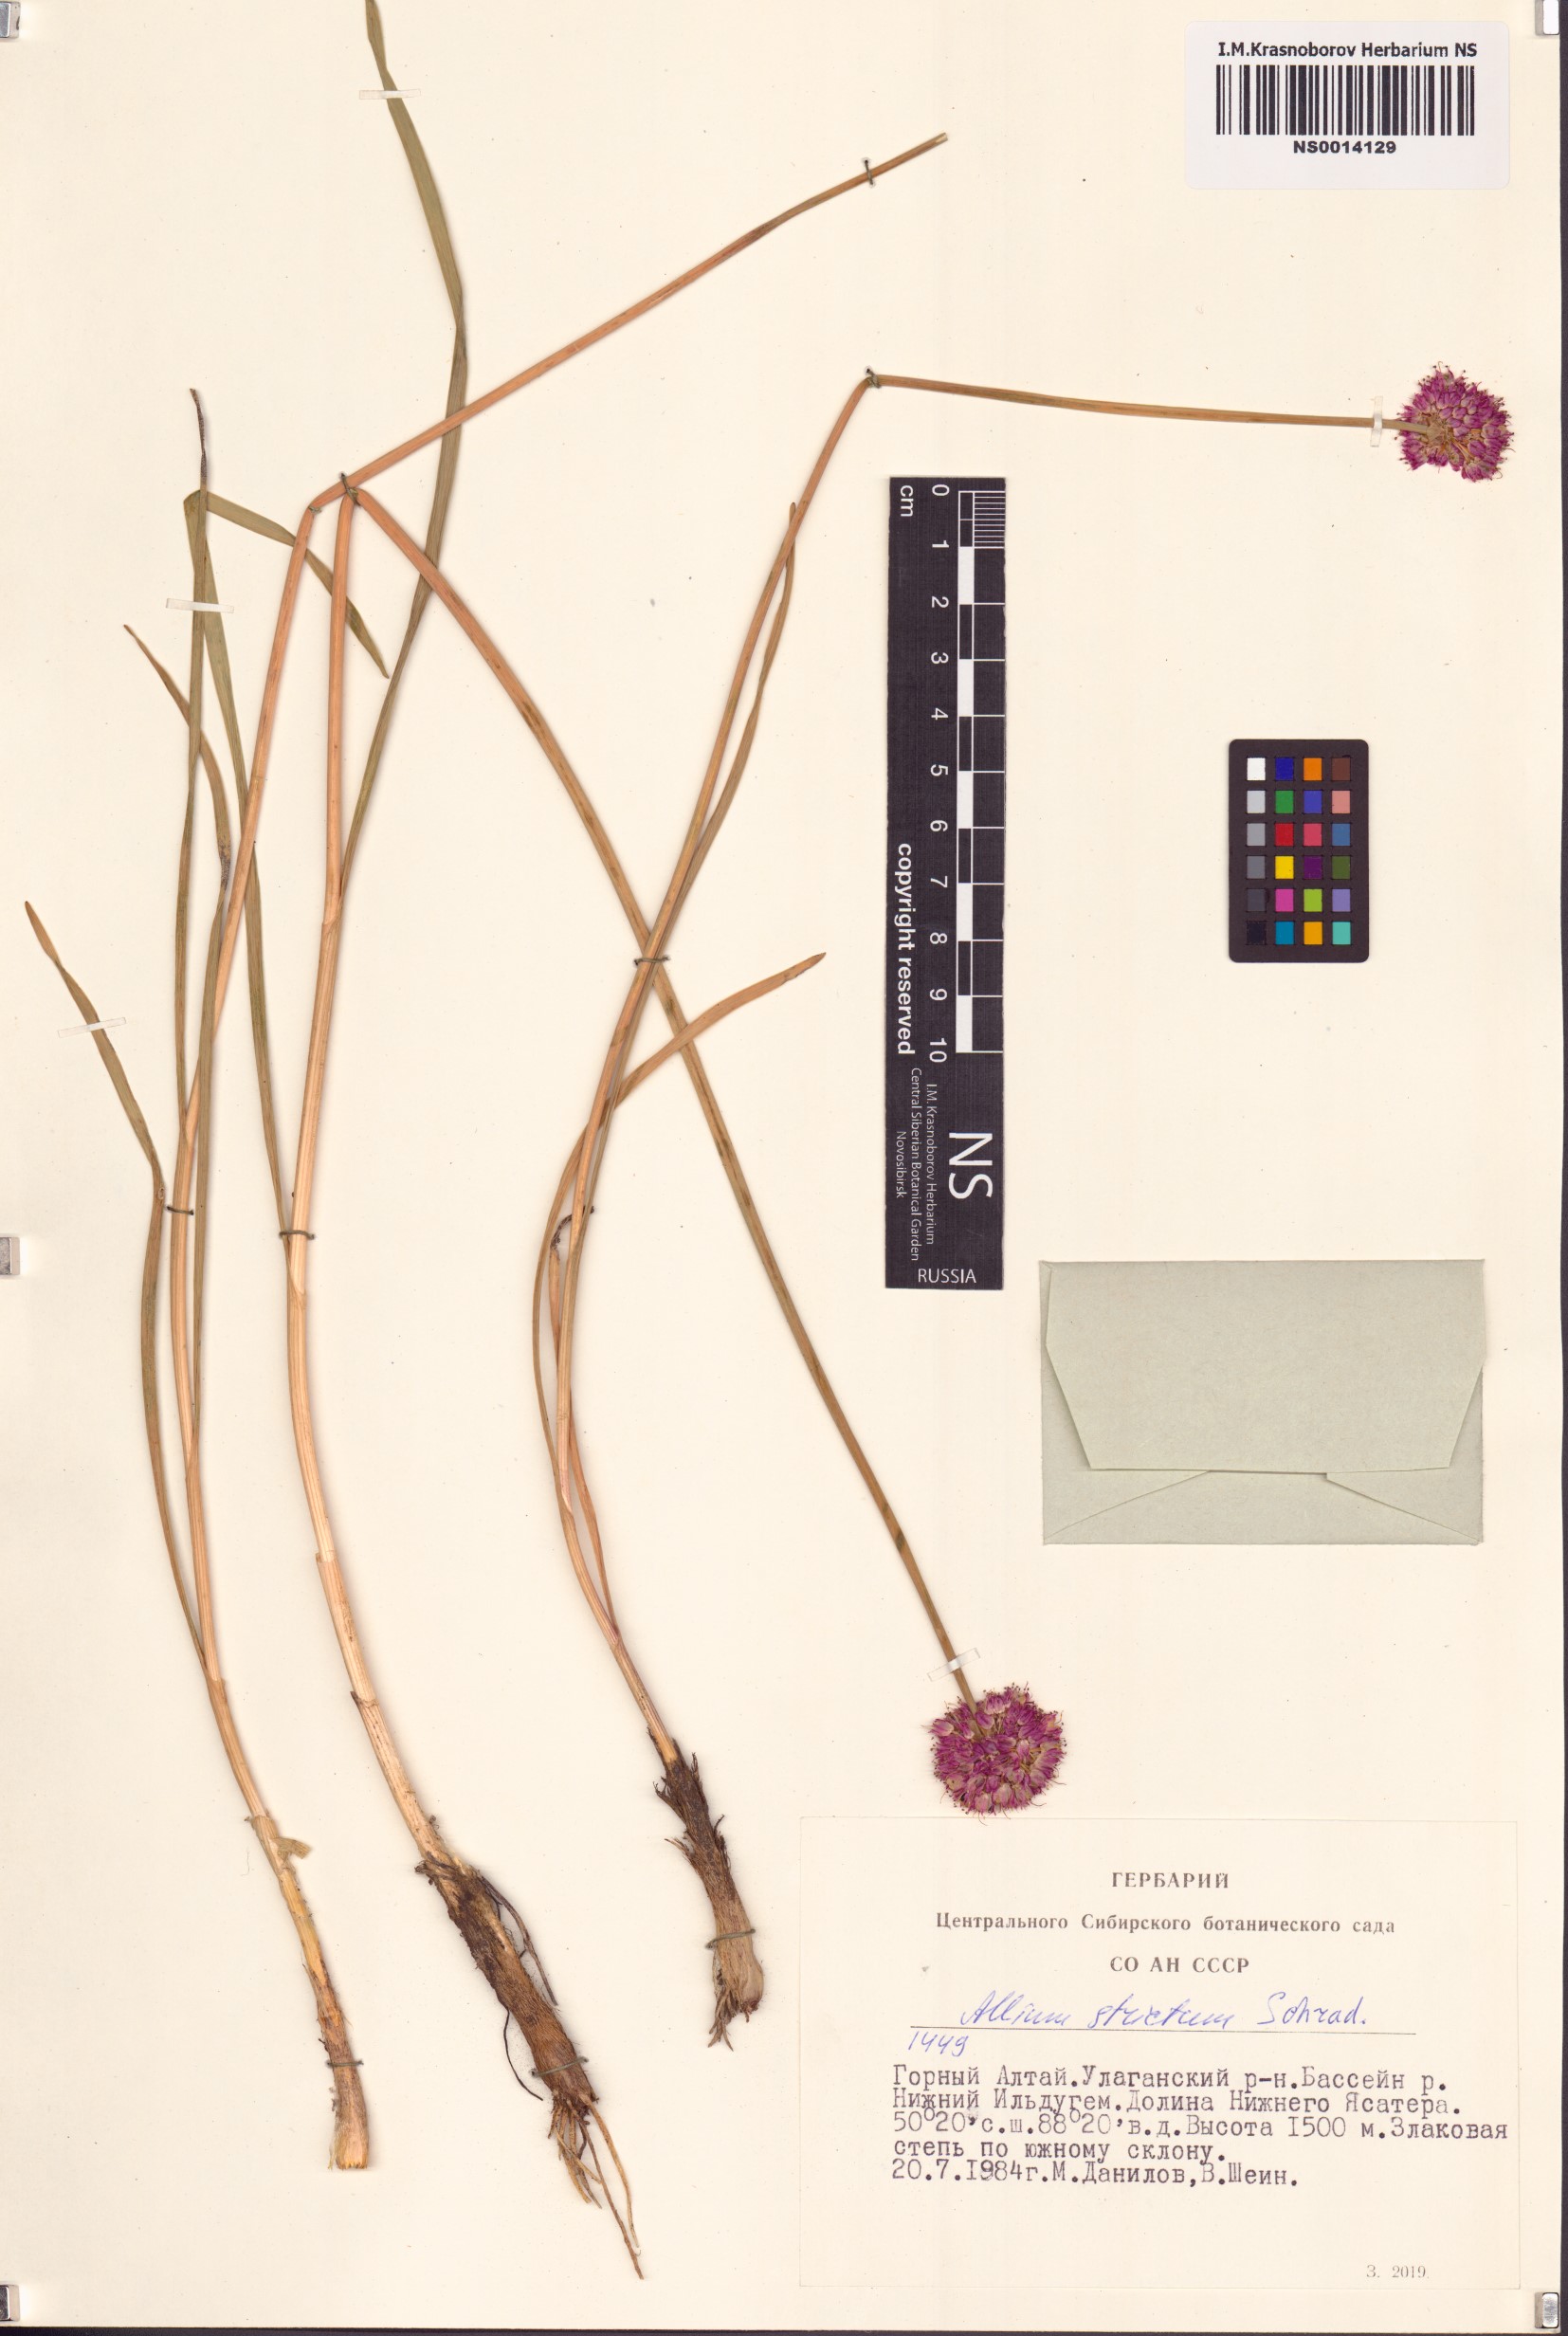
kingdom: Plantae
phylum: Tracheophyta
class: Liliopsida
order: Asparagales
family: Amaryllidaceae
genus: Allium
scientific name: Allium strictum
